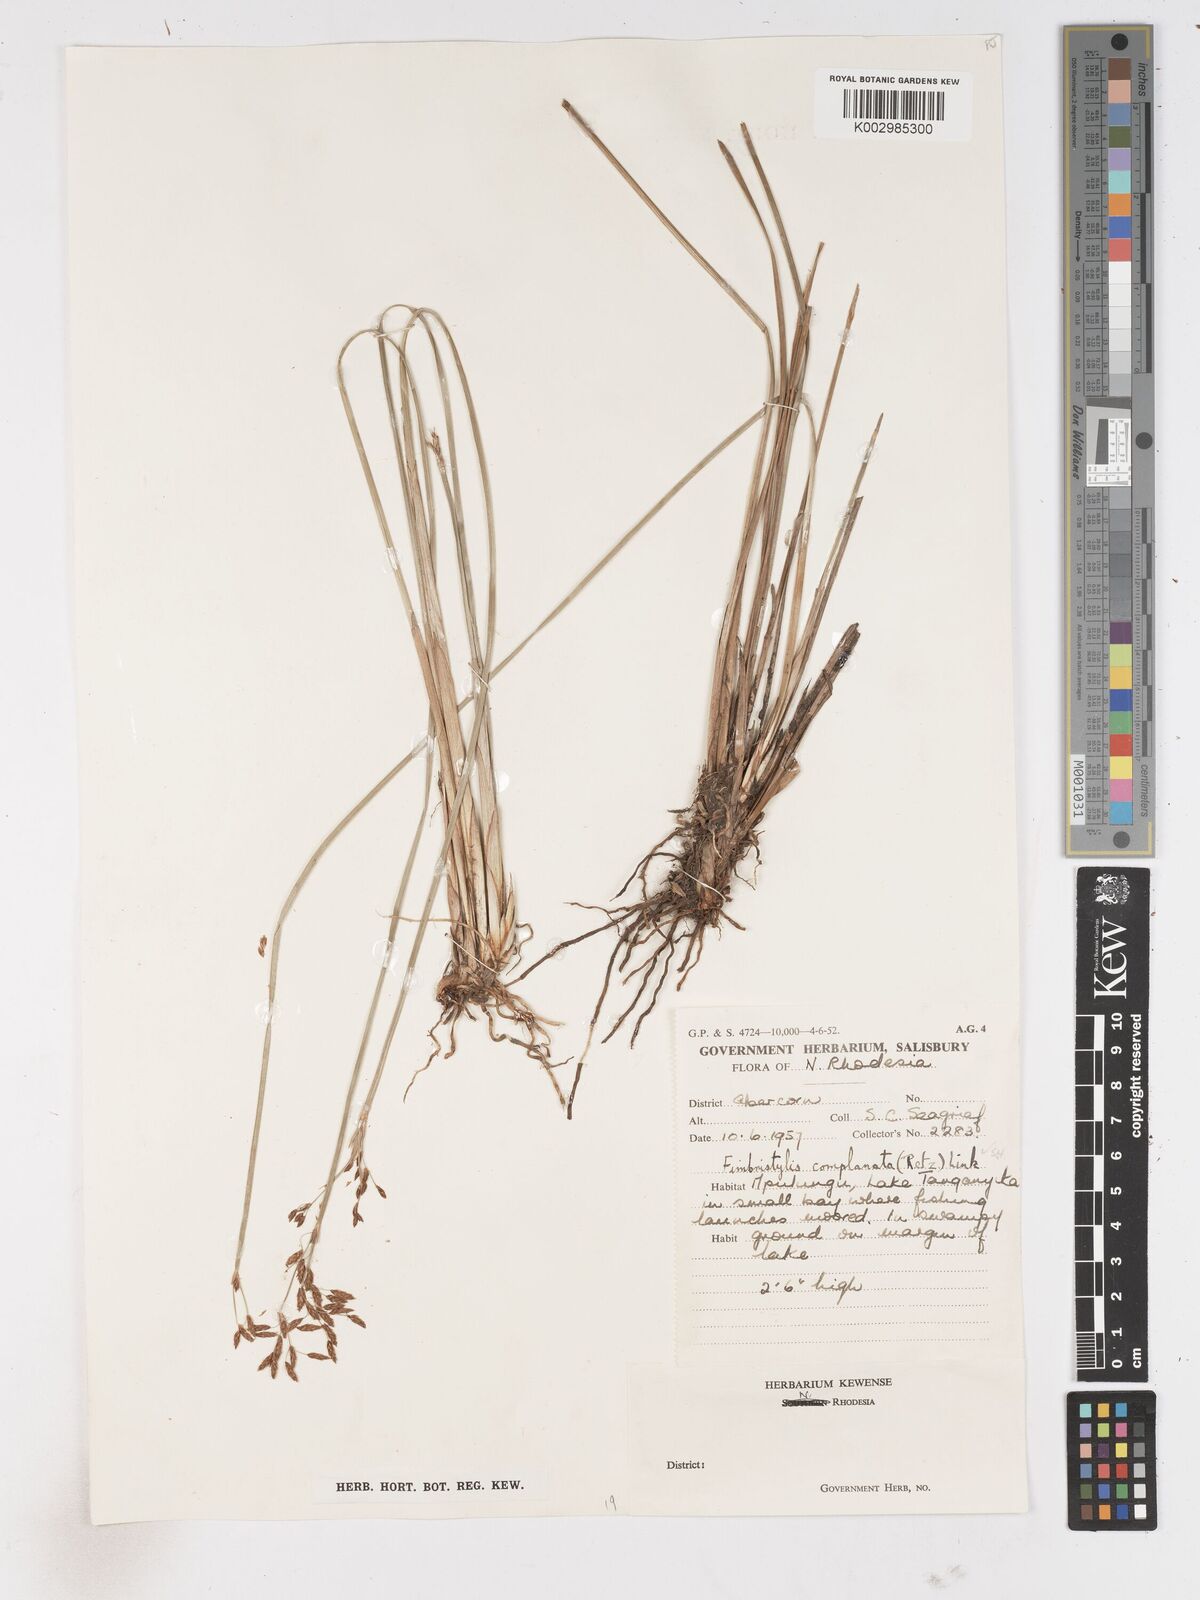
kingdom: Plantae
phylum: Tracheophyta
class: Liliopsida
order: Poales
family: Cyperaceae
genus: Fimbristylis
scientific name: Fimbristylis complanata
